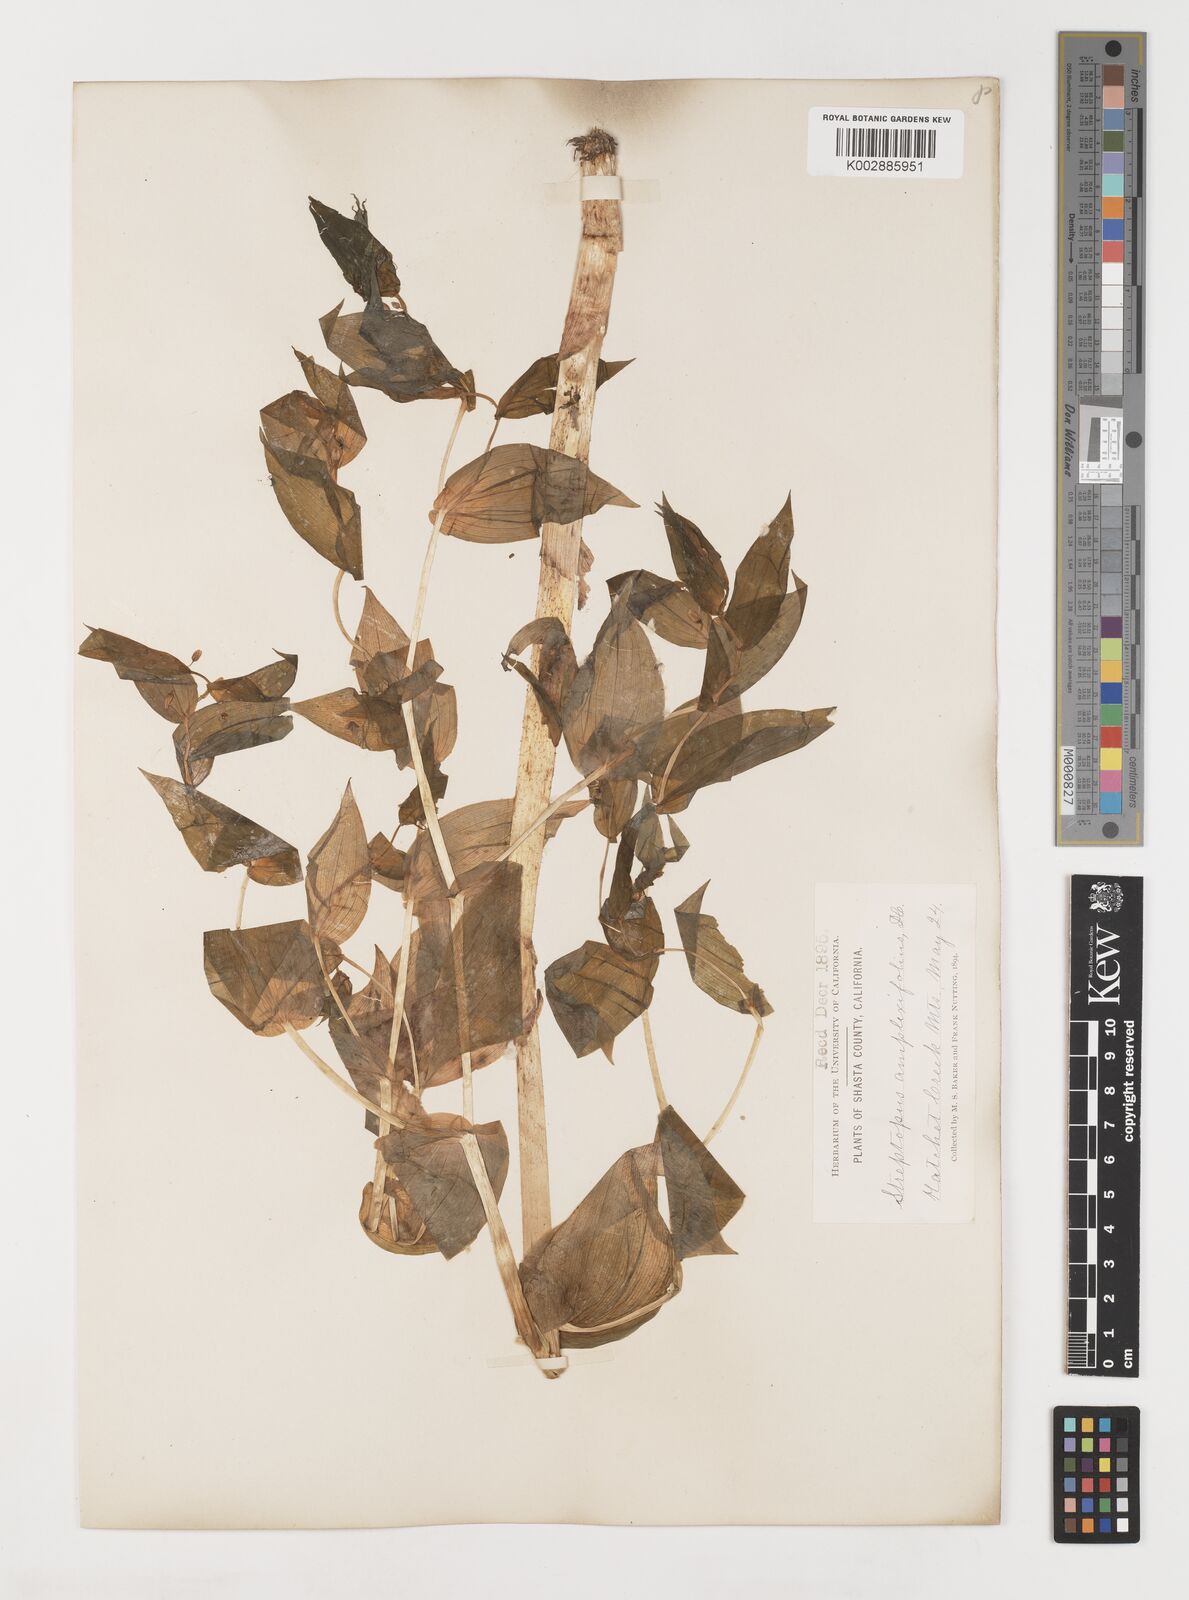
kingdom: Plantae
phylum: Tracheophyta
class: Liliopsida
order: Liliales
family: Liliaceae
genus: Streptopus
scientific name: Streptopus amplexifolius
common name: Clasp twisted stalk
